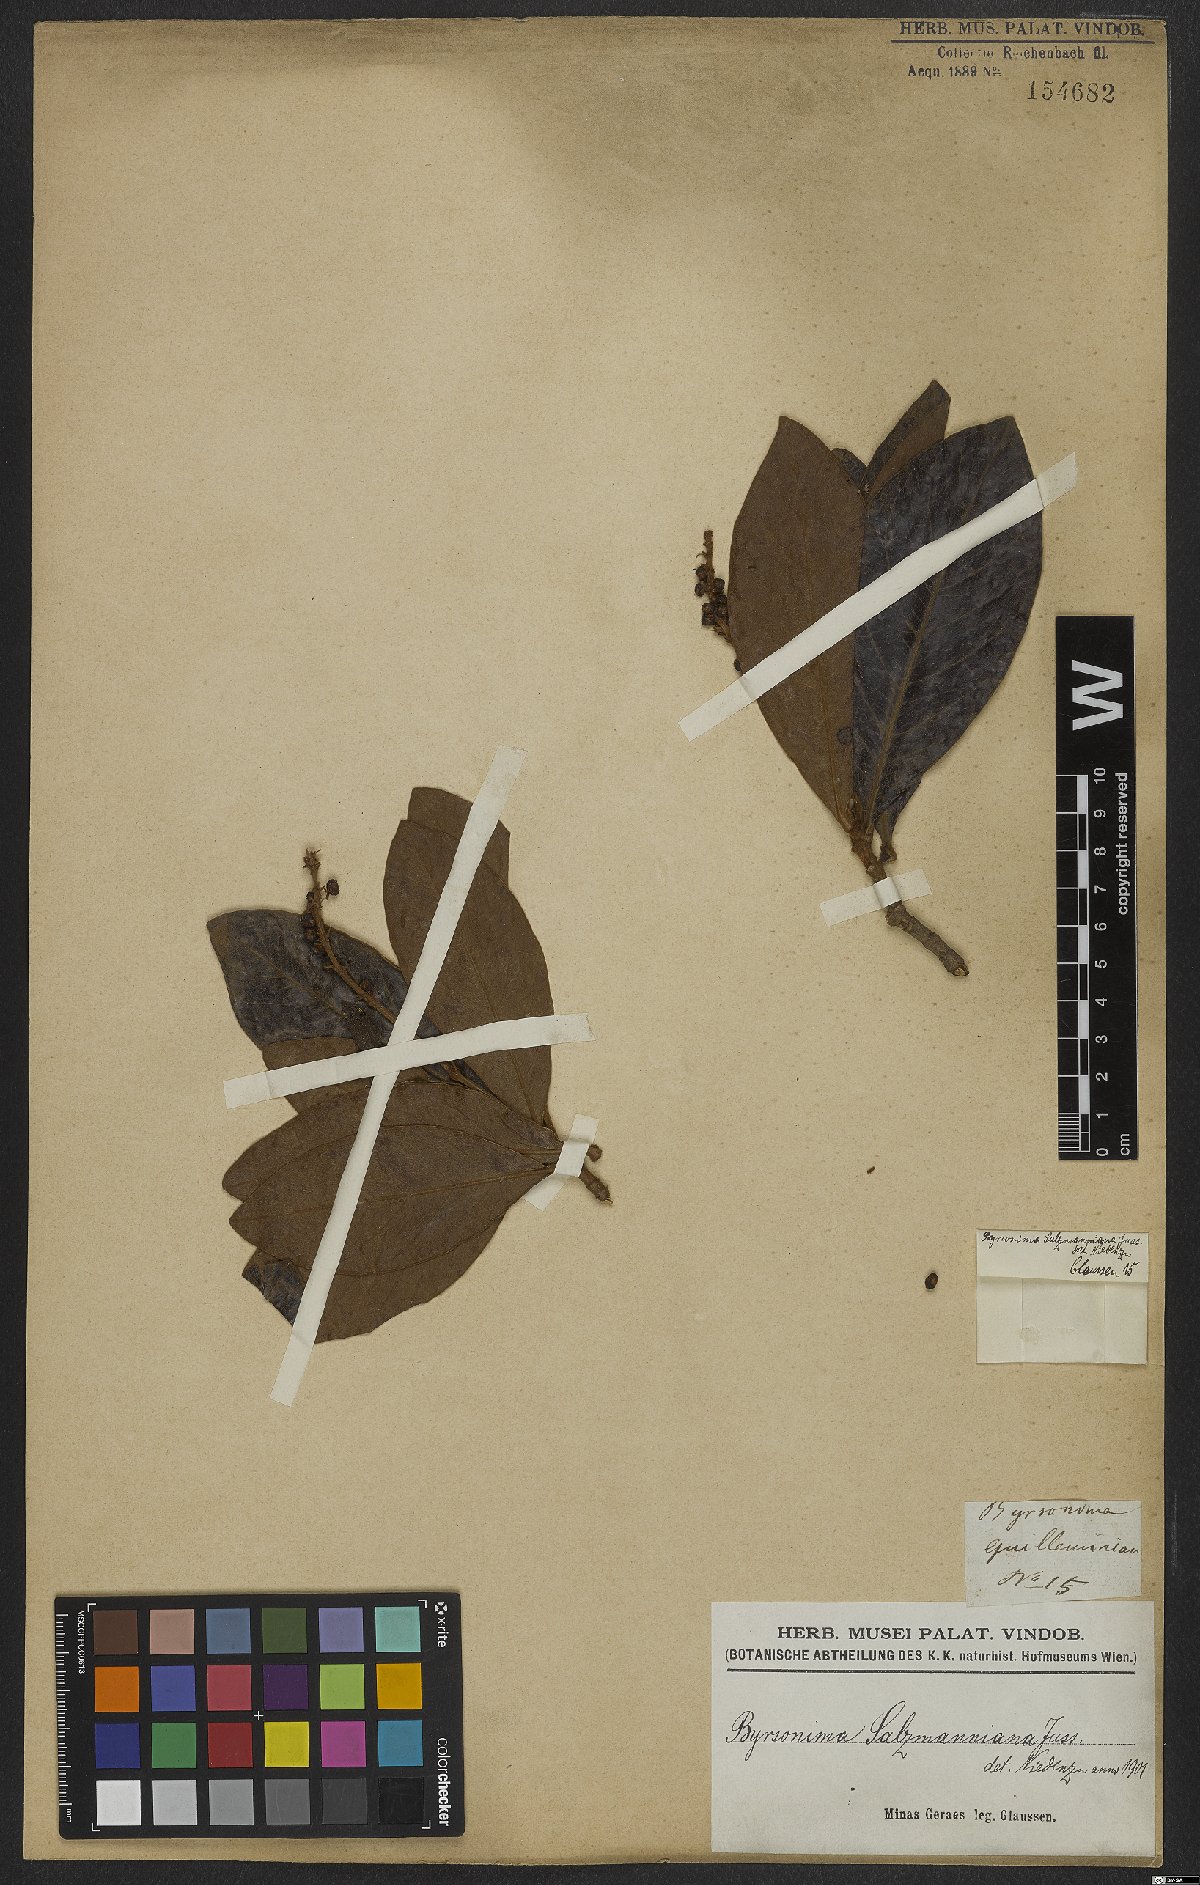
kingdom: Plantae
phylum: Tracheophyta
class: Magnoliopsida
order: Malpighiales
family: Malpighiaceae
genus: Byrsonima
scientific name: Byrsonima salzmanniana
